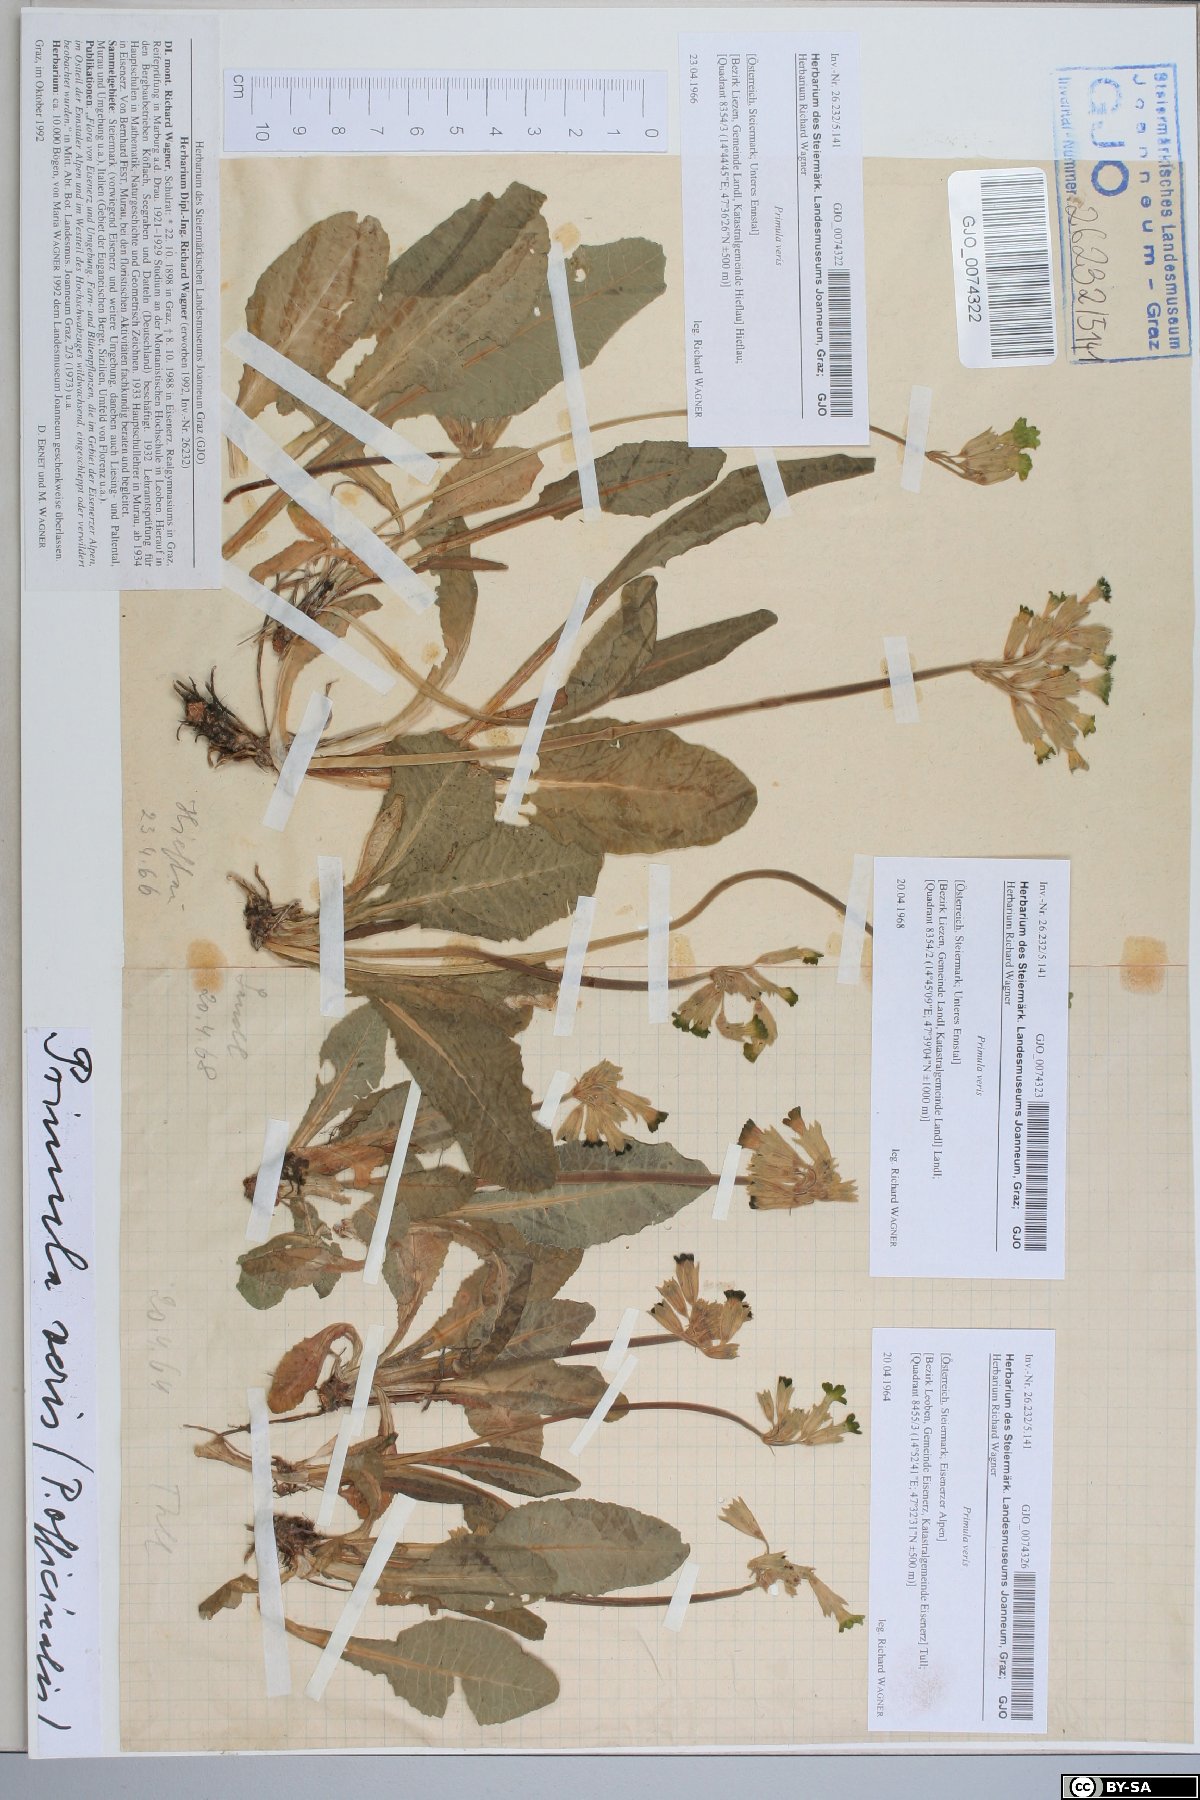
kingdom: Plantae
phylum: Tracheophyta
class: Magnoliopsida
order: Ericales
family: Primulaceae
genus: Primula
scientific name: Primula veris
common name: Cowslip
